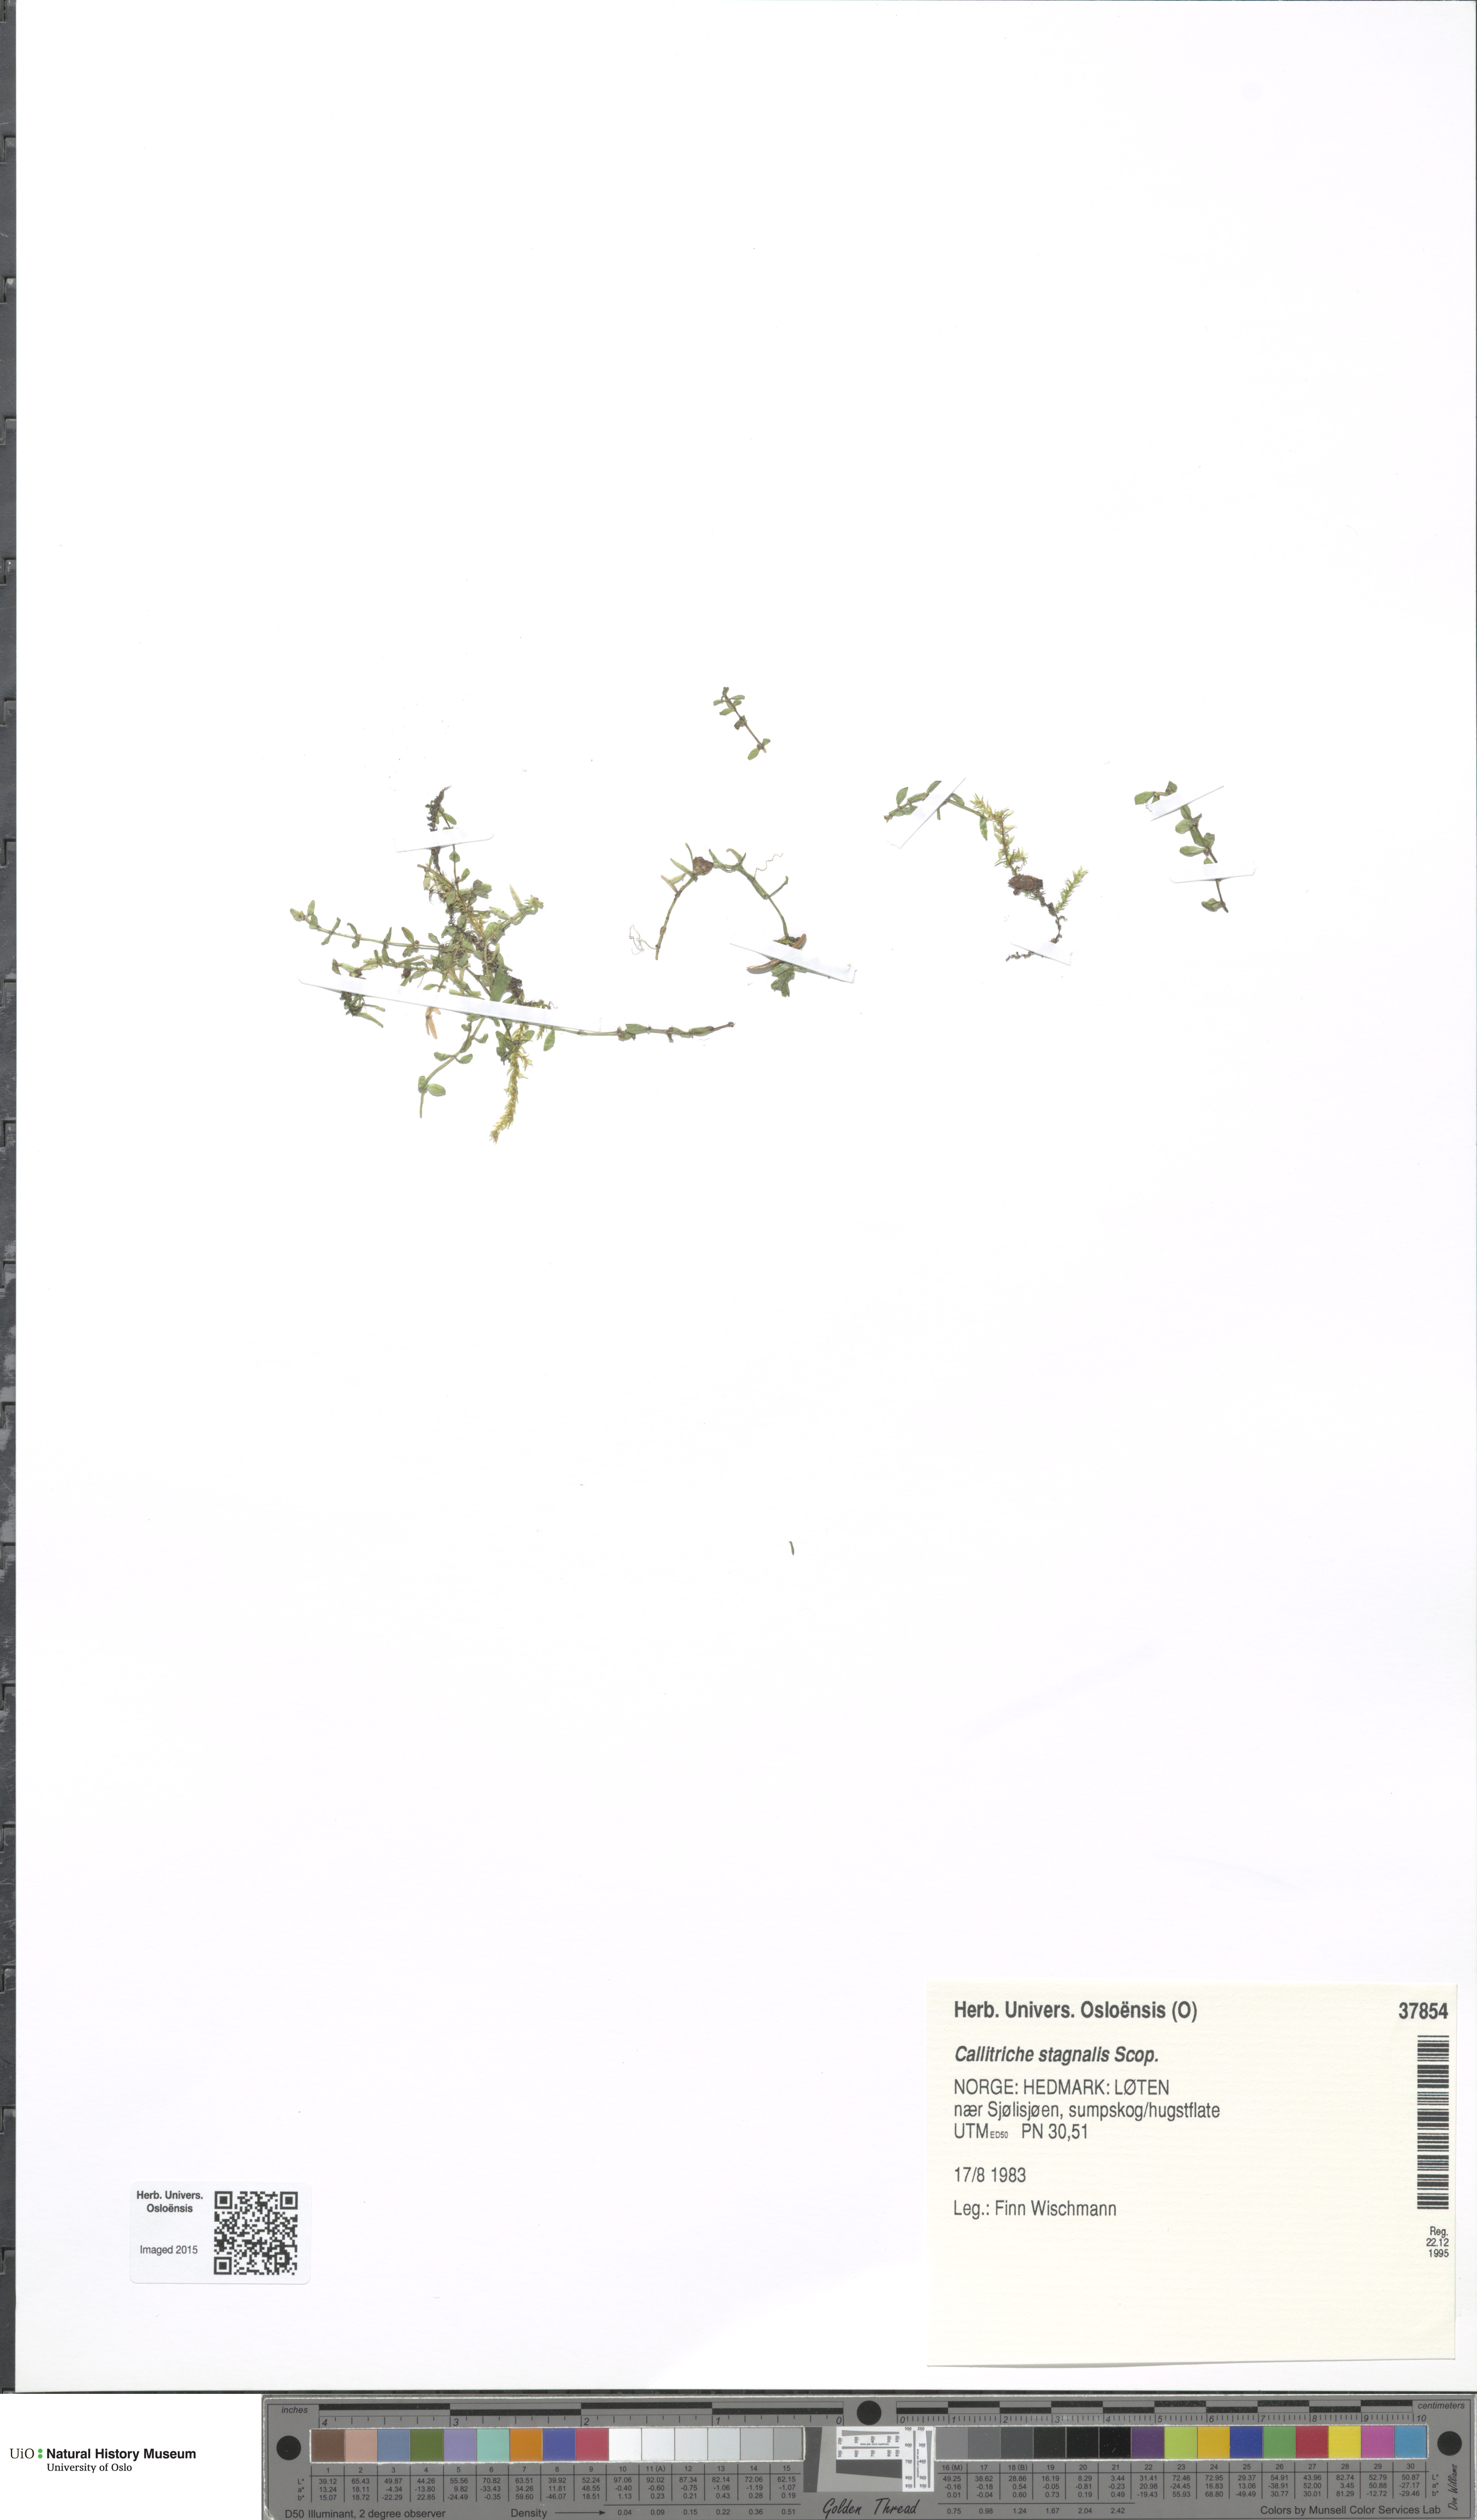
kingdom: Plantae
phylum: Tracheophyta
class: Magnoliopsida
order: Lamiales
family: Plantaginaceae
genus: Callitriche
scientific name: Callitriche stagnalis
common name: Common water-starwort
